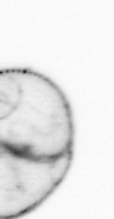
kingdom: Chromista
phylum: Myzozoa
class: Dinophyceae
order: Noctilucales
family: Noctilucaceae
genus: Noctiluca
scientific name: Noctiluca scintillans
